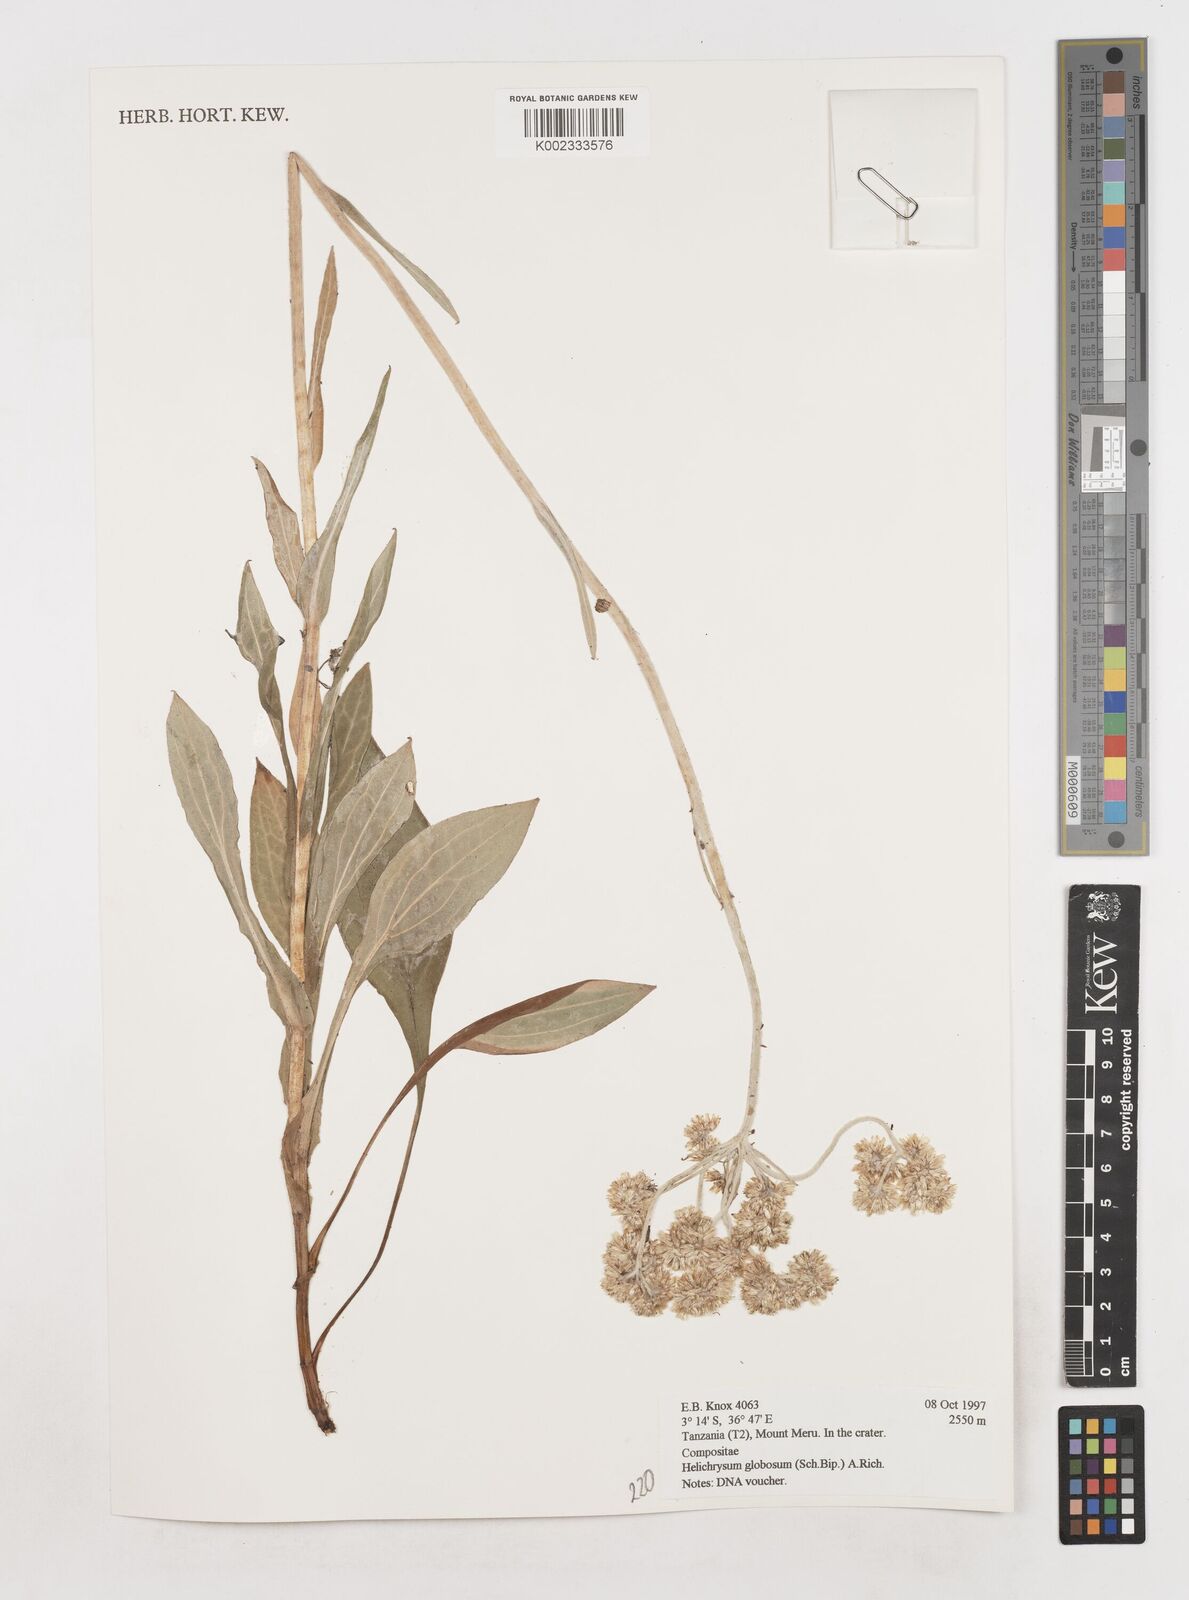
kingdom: Plantae
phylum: Tracheophyta
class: Magnoliopsida
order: Asterales
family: Asteraceae
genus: Helichrysum
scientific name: Helichrysum globosum
